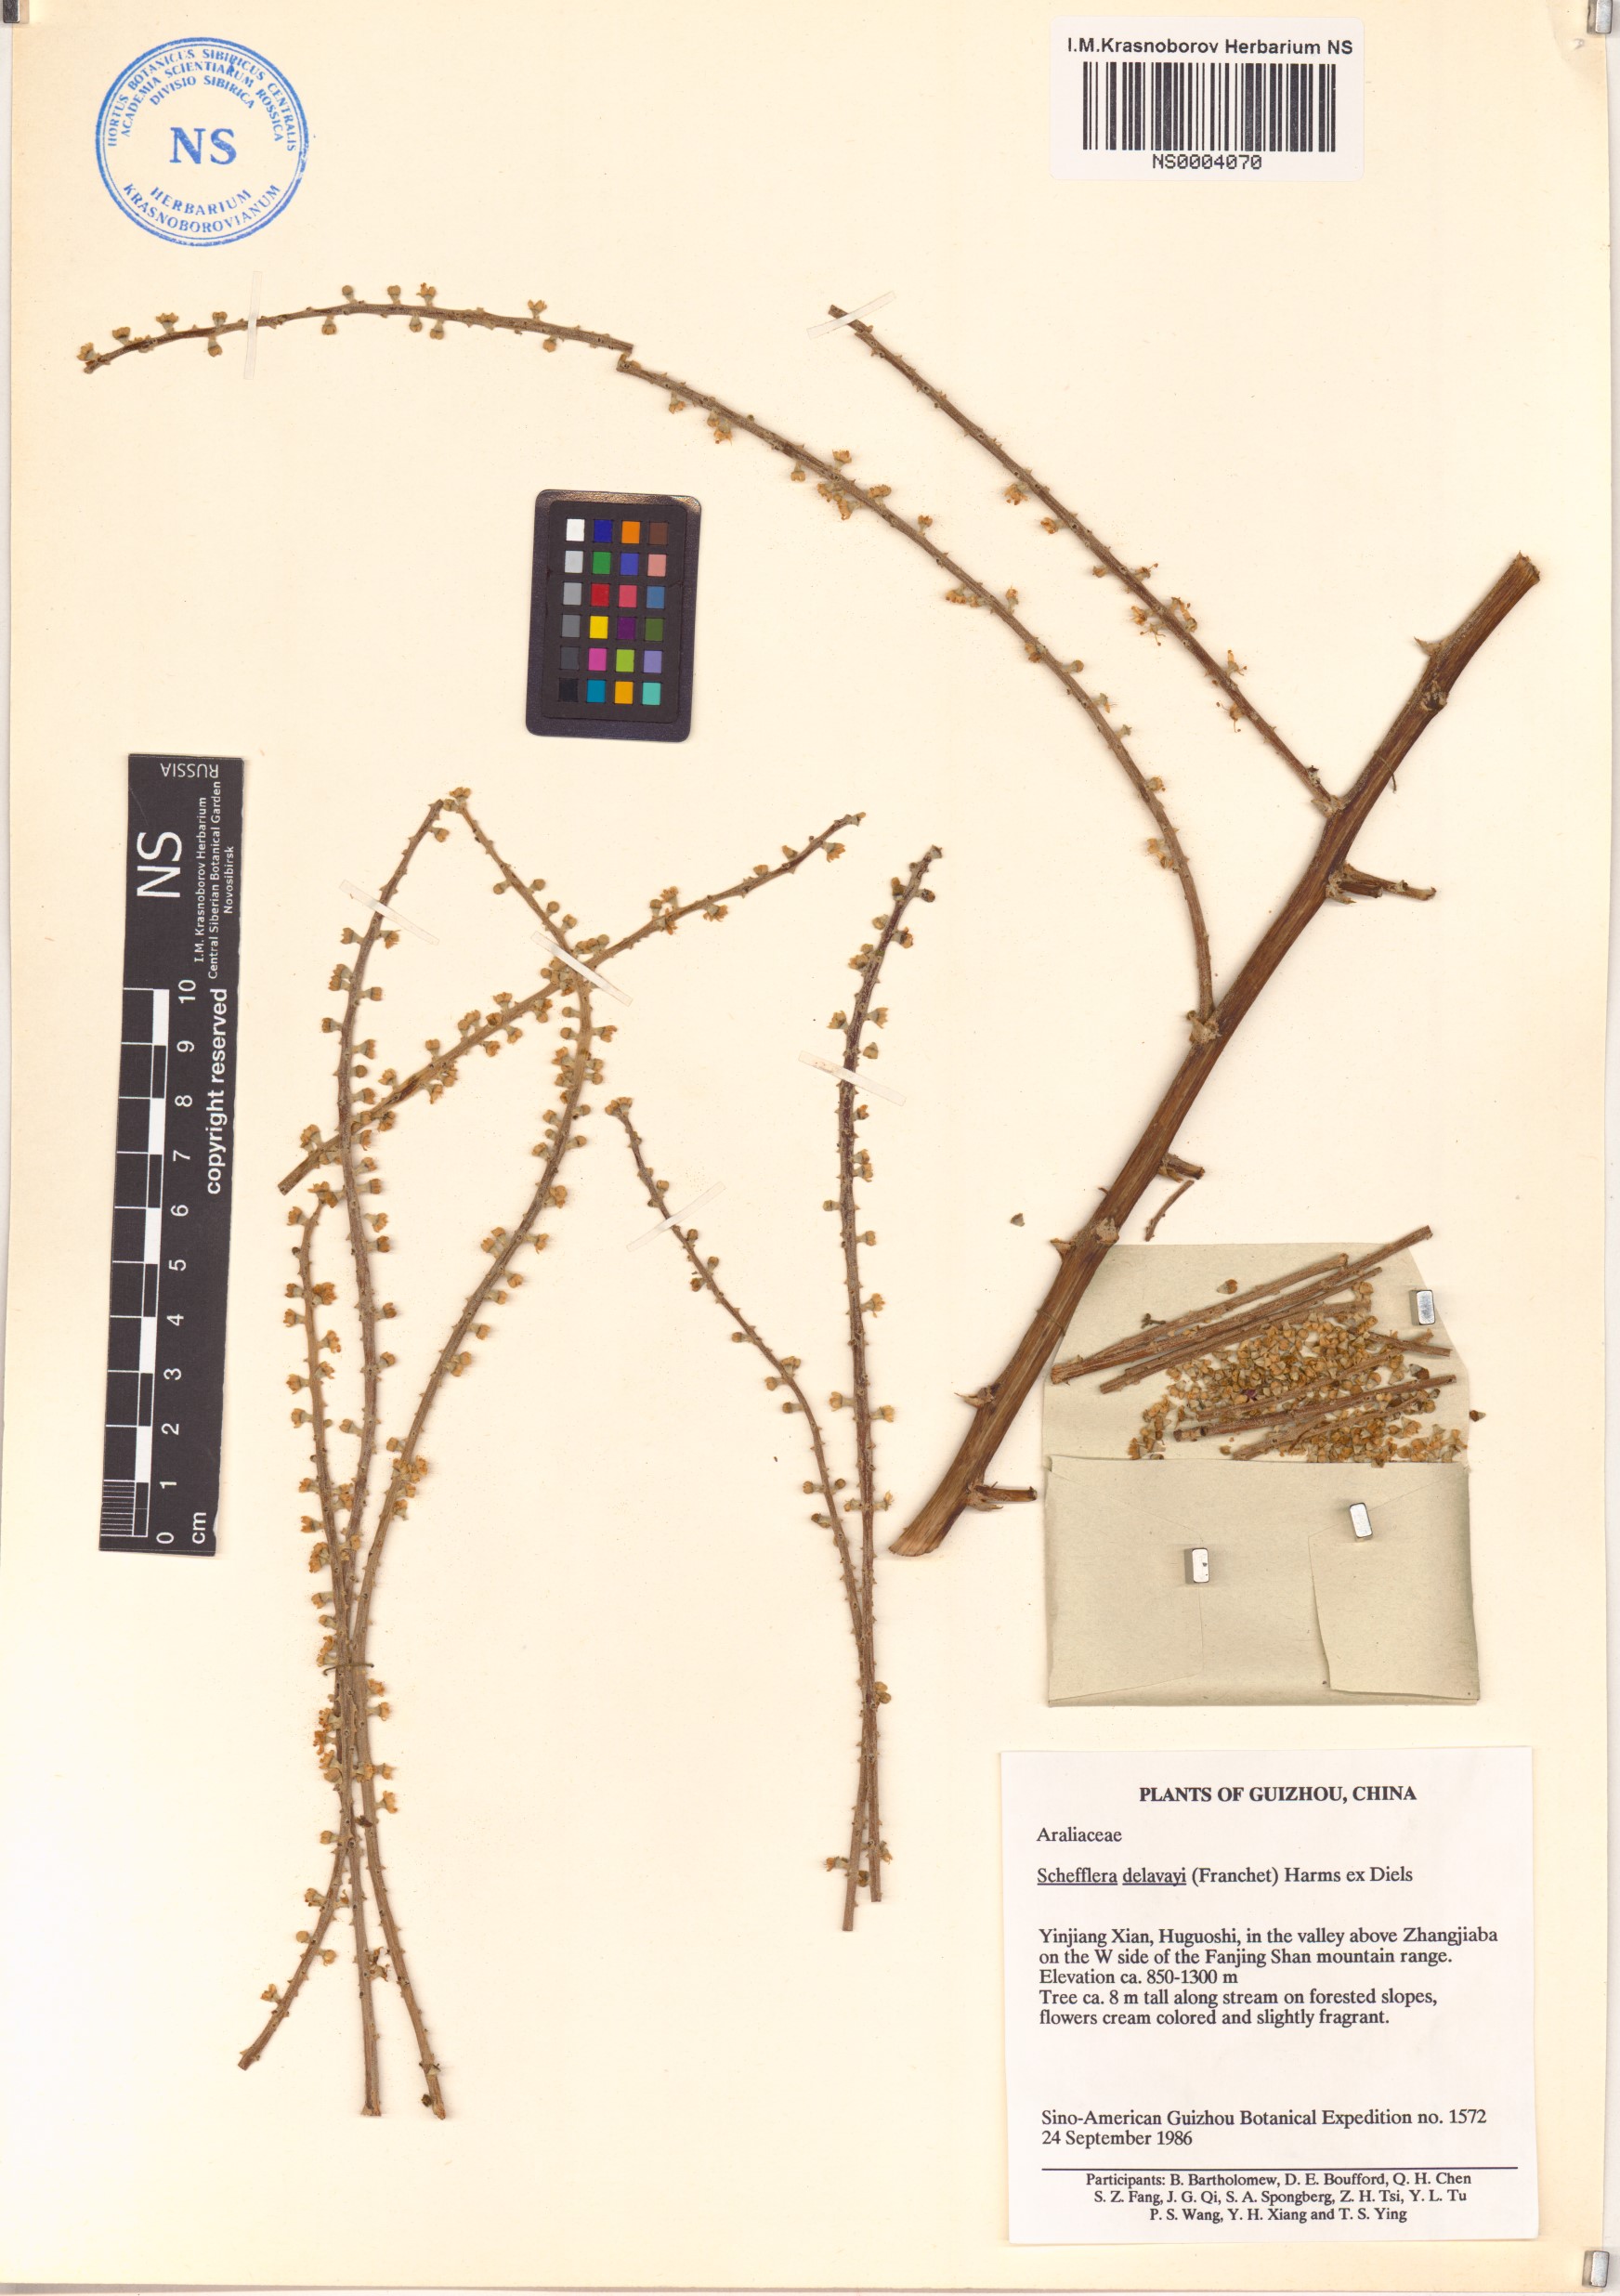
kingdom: Plantae
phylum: Tracheophyta
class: Magnoliopsida
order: Apiales
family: Araliaceae
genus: Heptapleurum
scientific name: Heptapleurum delavayi
